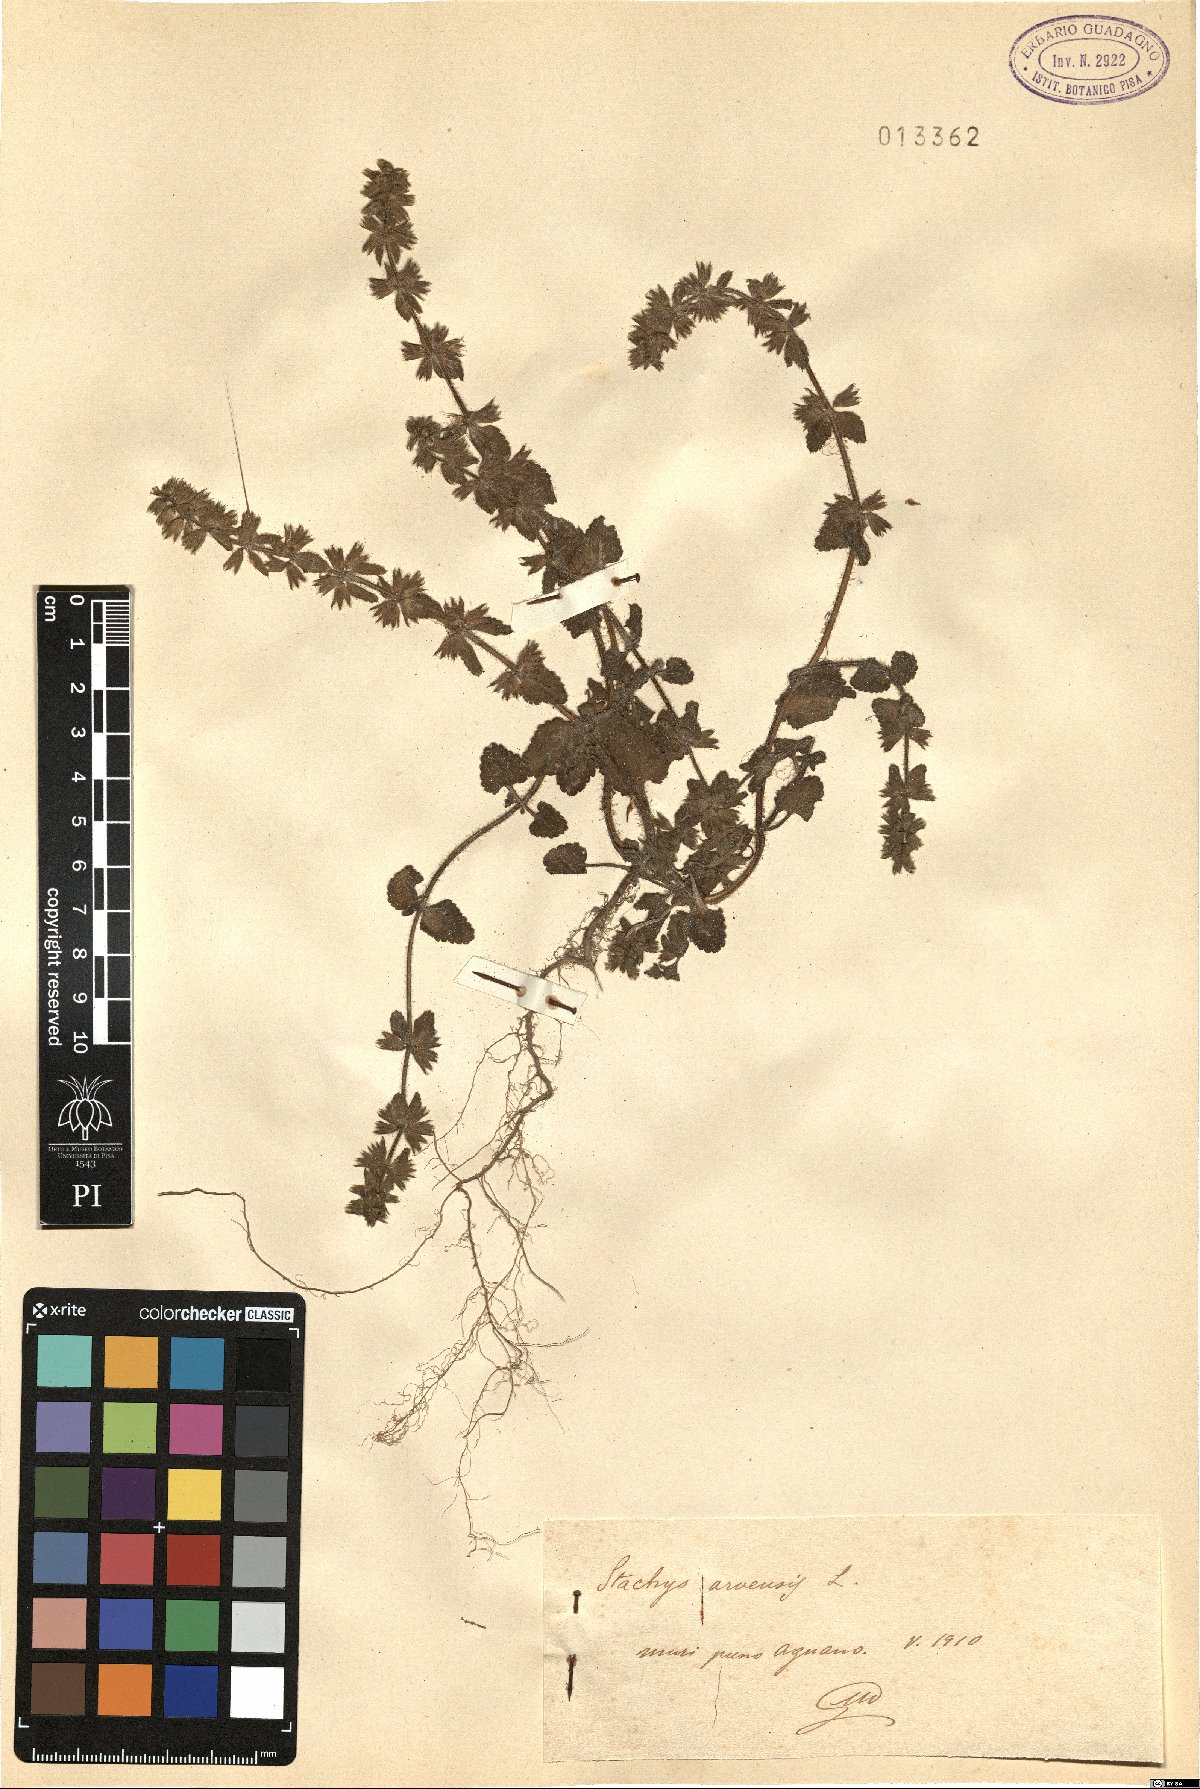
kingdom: Plantae
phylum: Tracheophyta
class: Magnoliopsida
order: Lamiales
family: Lamiaceae
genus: Stachys
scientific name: Stachys arvensis
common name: Field woundwort
